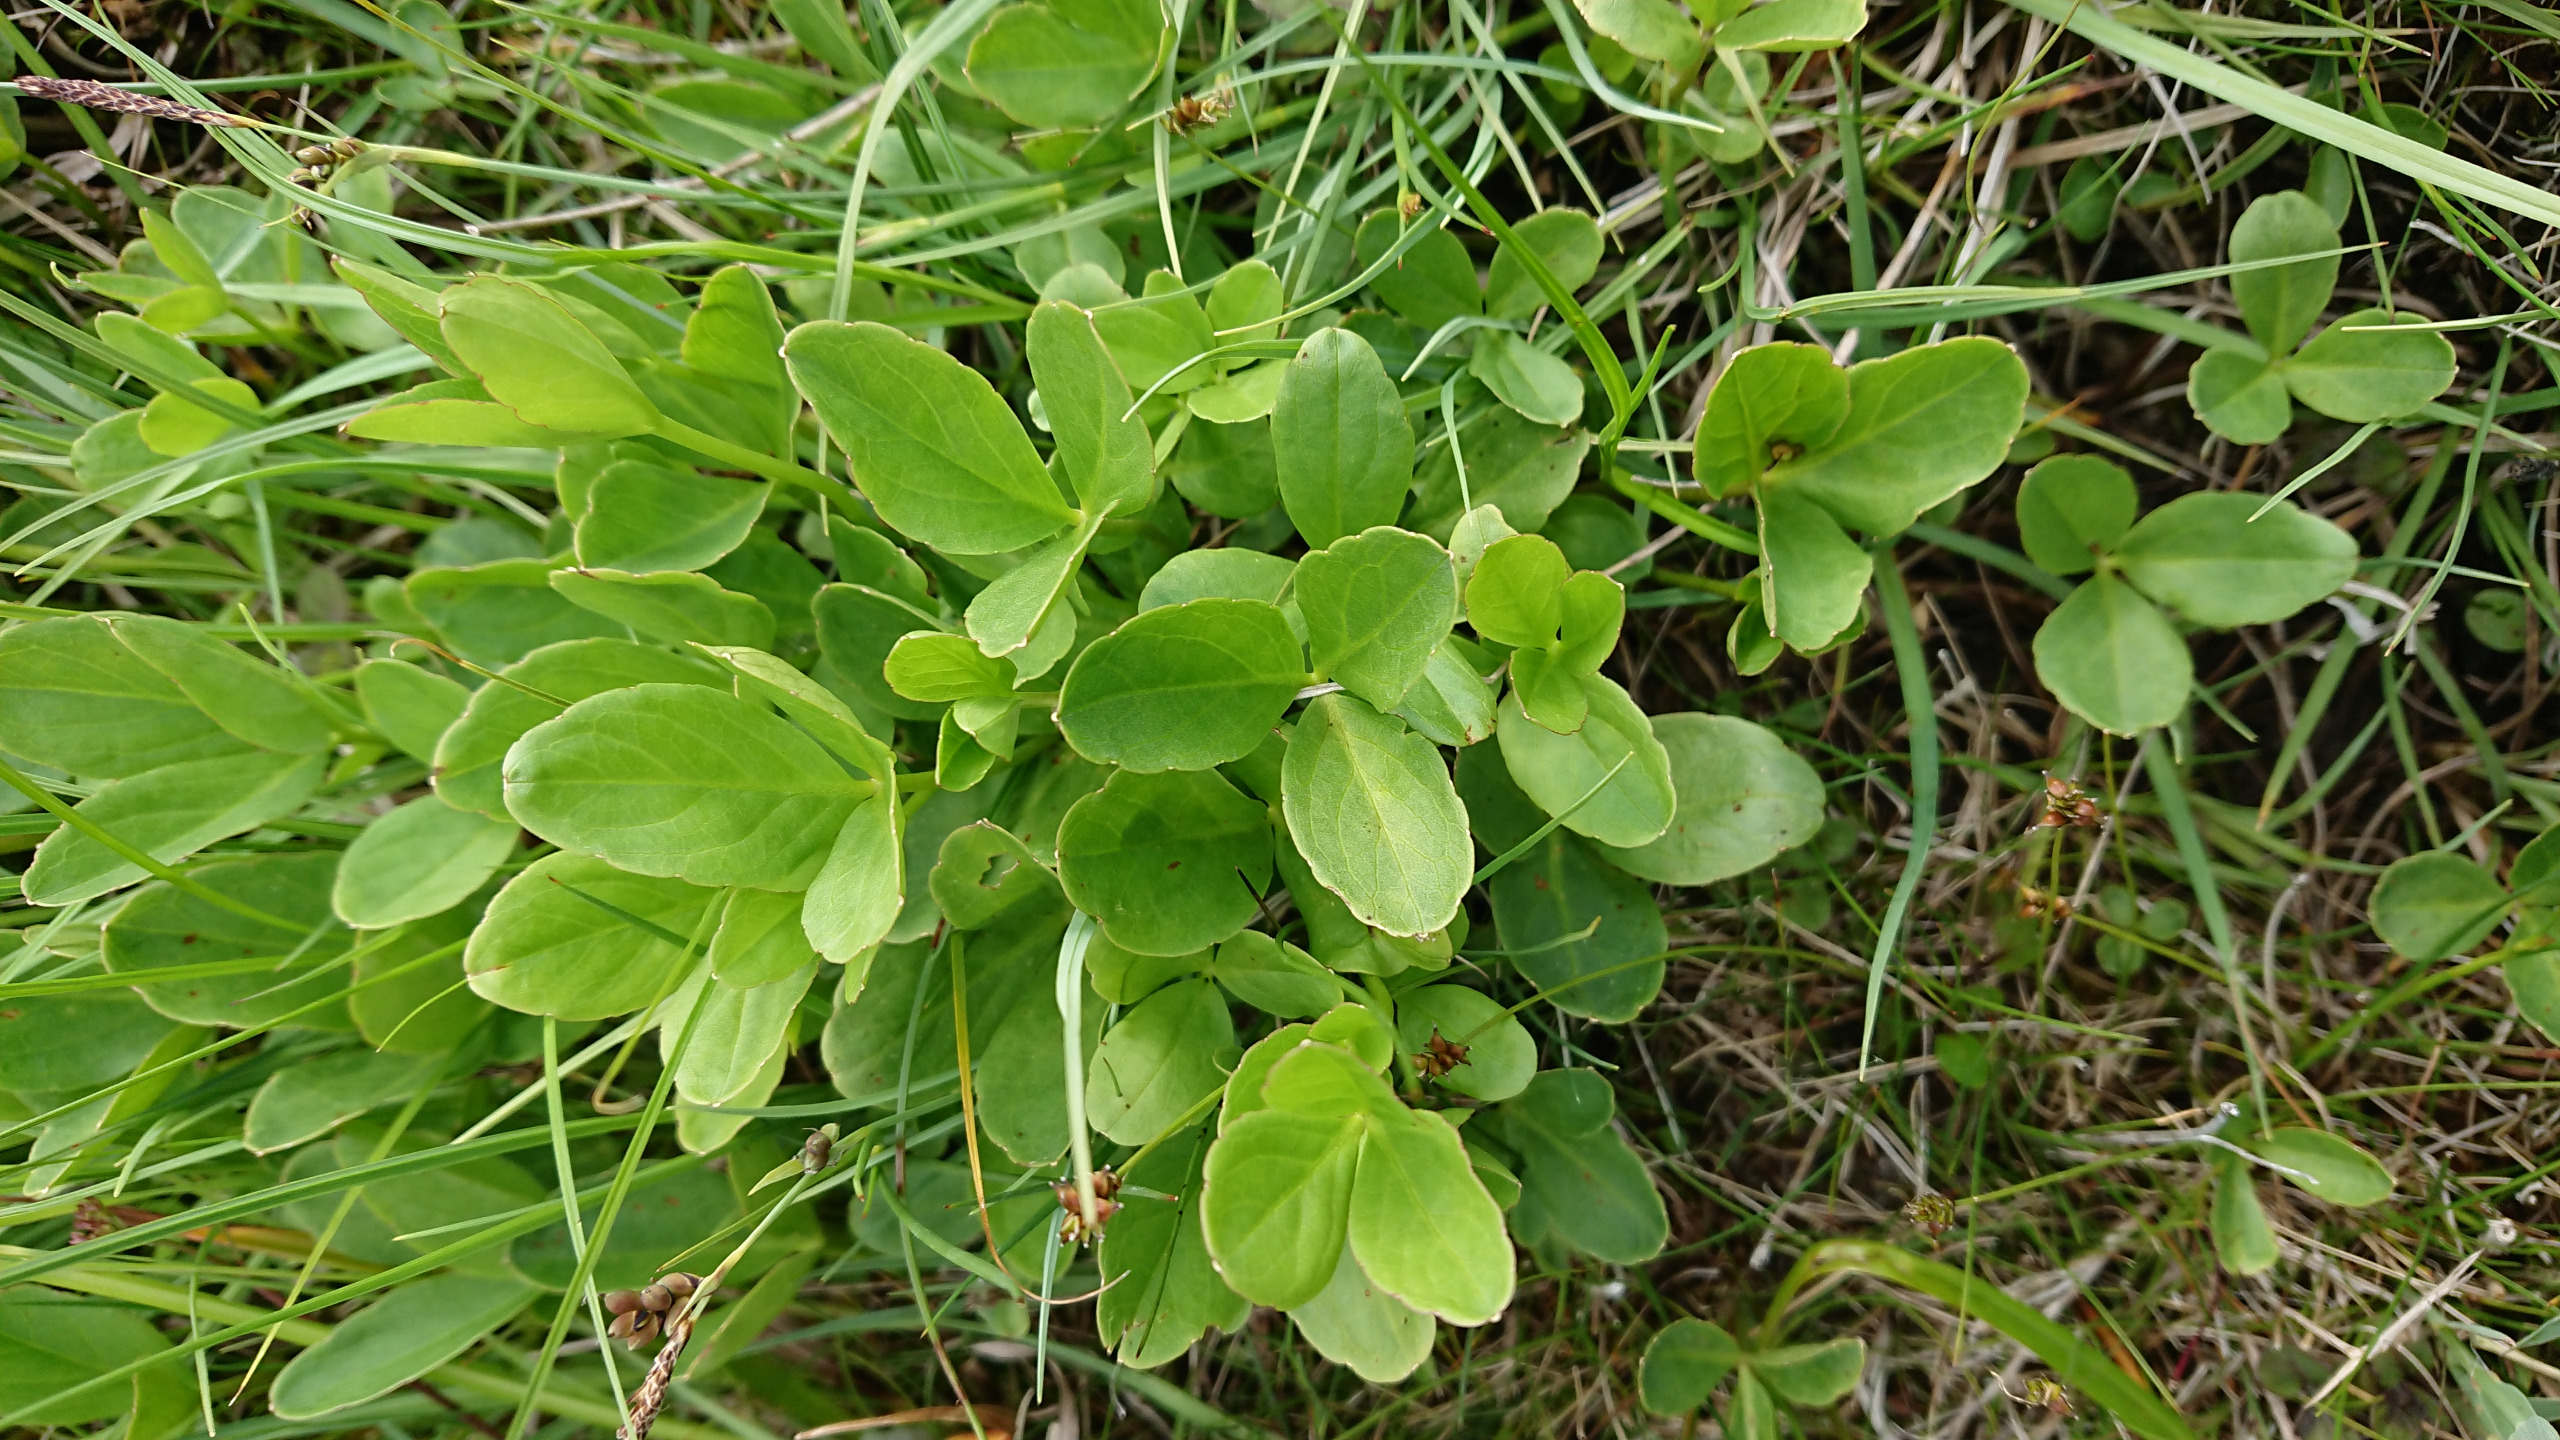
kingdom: Plantae
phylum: Tracheophyta
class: Magnoliopsida
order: Asterales
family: Menyanthaceae
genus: Menyanthes
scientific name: Menyanthes trifoliata
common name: Bukkeblad
